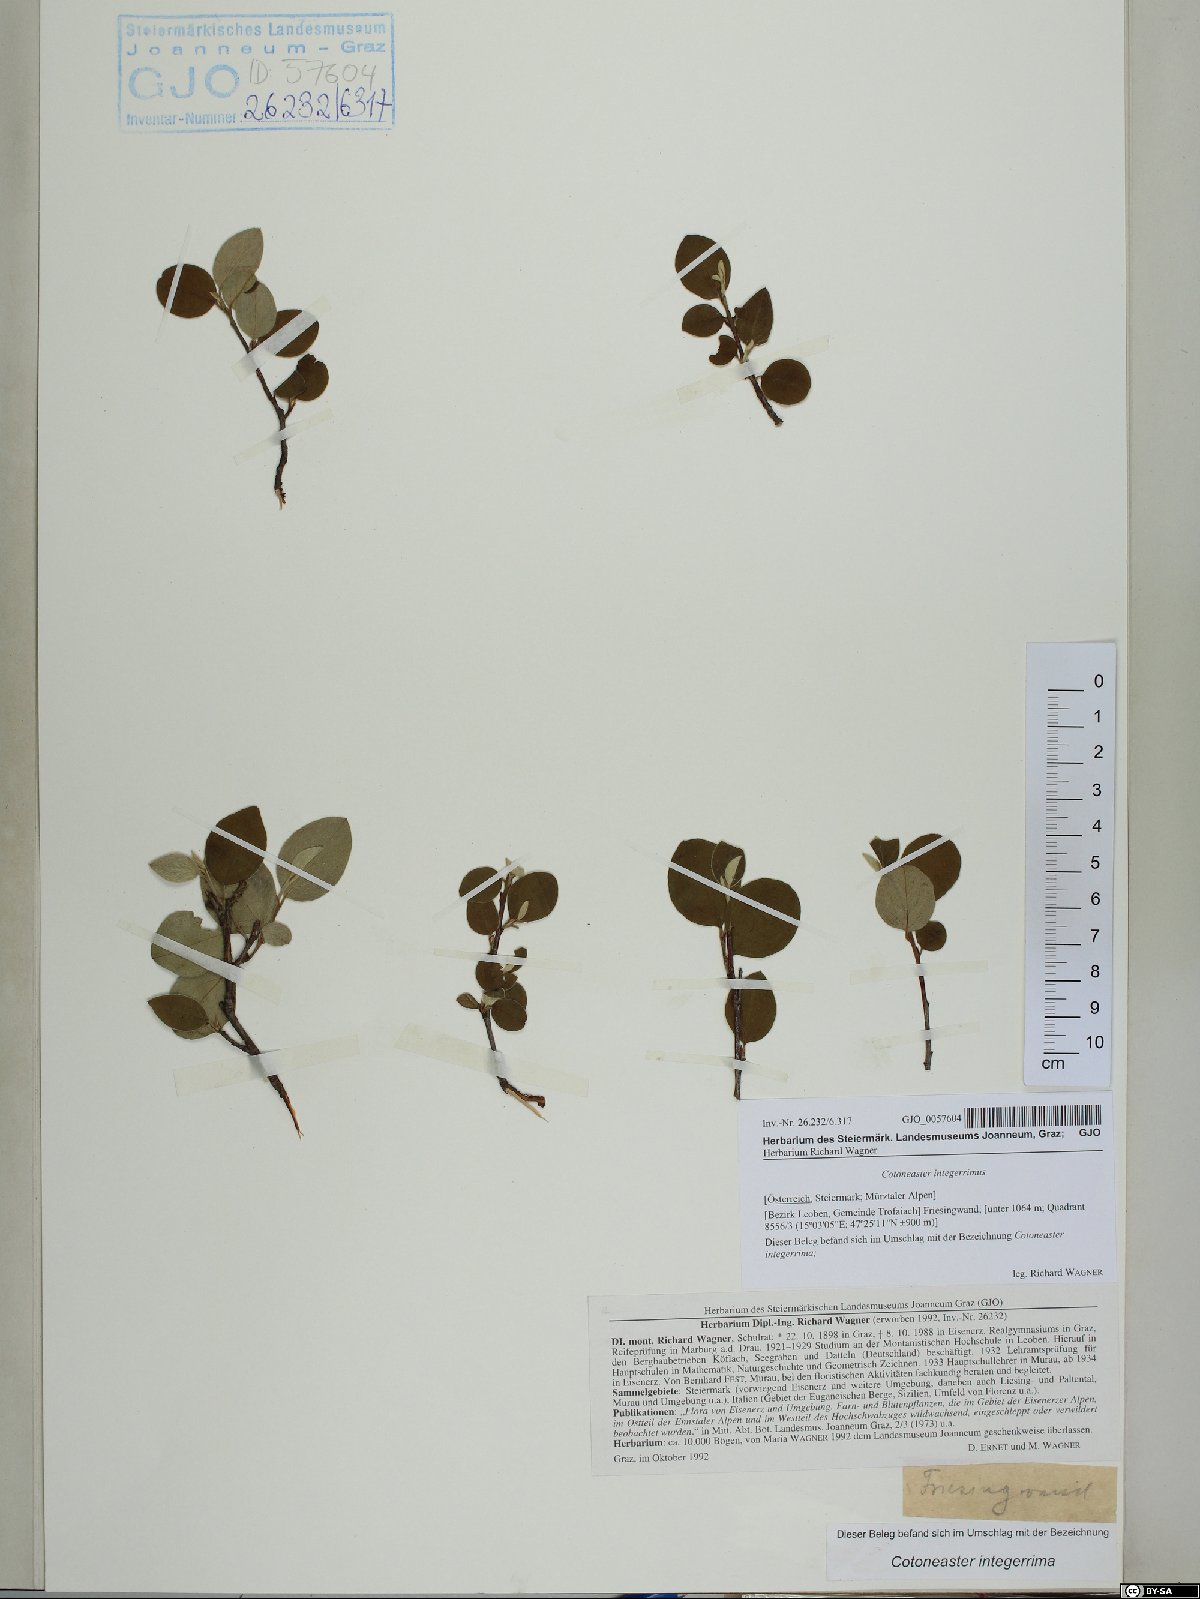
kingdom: Plantae
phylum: Tracheophyta
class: Magnoliopsida
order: Rosales
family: Rosaceae
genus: Cotoneaster
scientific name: Cotoneaster integerrimus
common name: Wild cotoneaster
